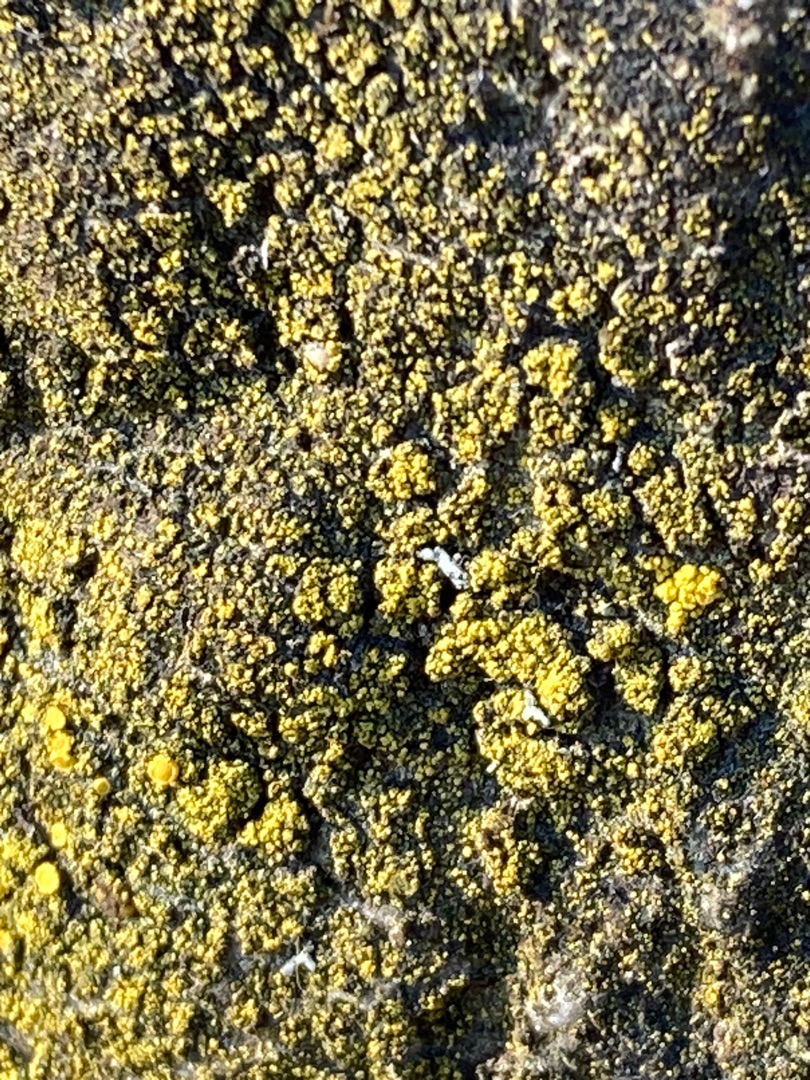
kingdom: Fungi
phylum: Ascomycota
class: Lecanoromycetes
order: Teloschistales
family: Teloschistaceae
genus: Flavoplaca
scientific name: Flavoplaca
